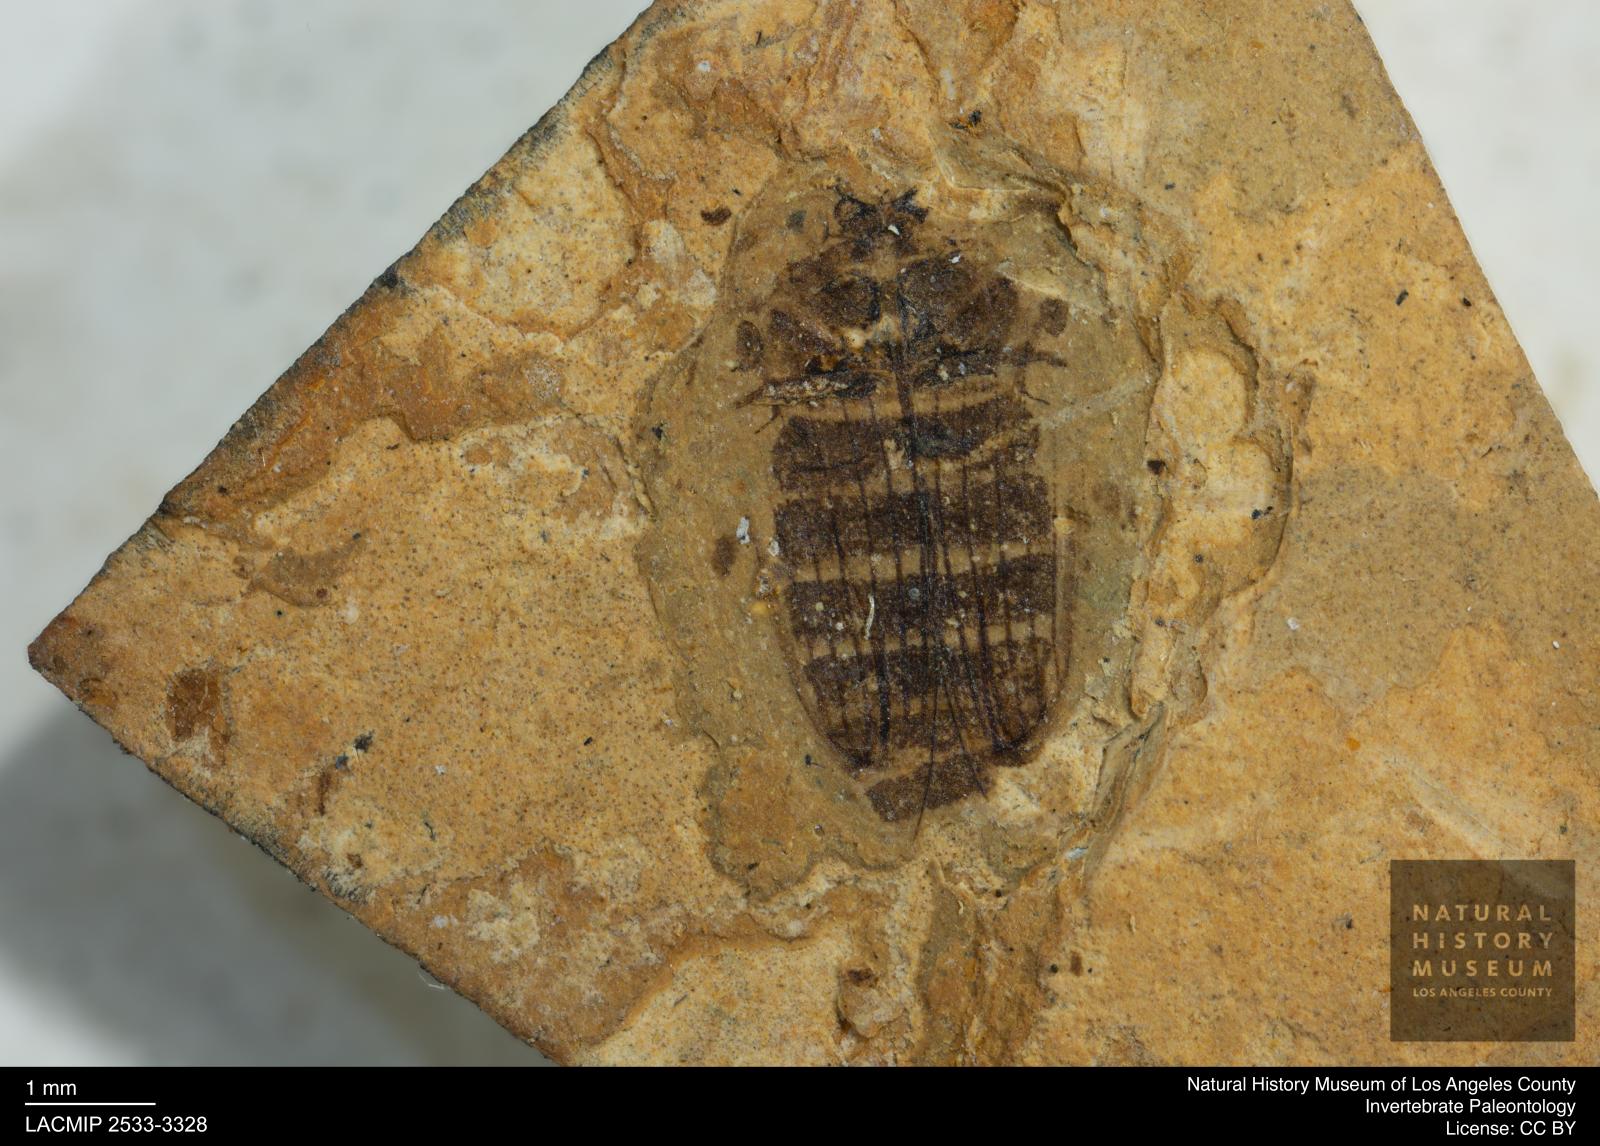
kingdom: Animalia
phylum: Arthropoda
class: Insecta
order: Coleoptera
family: Dytiscidae
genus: Laccophilus
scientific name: Laccophilus Palaeogyrinus strigatus
